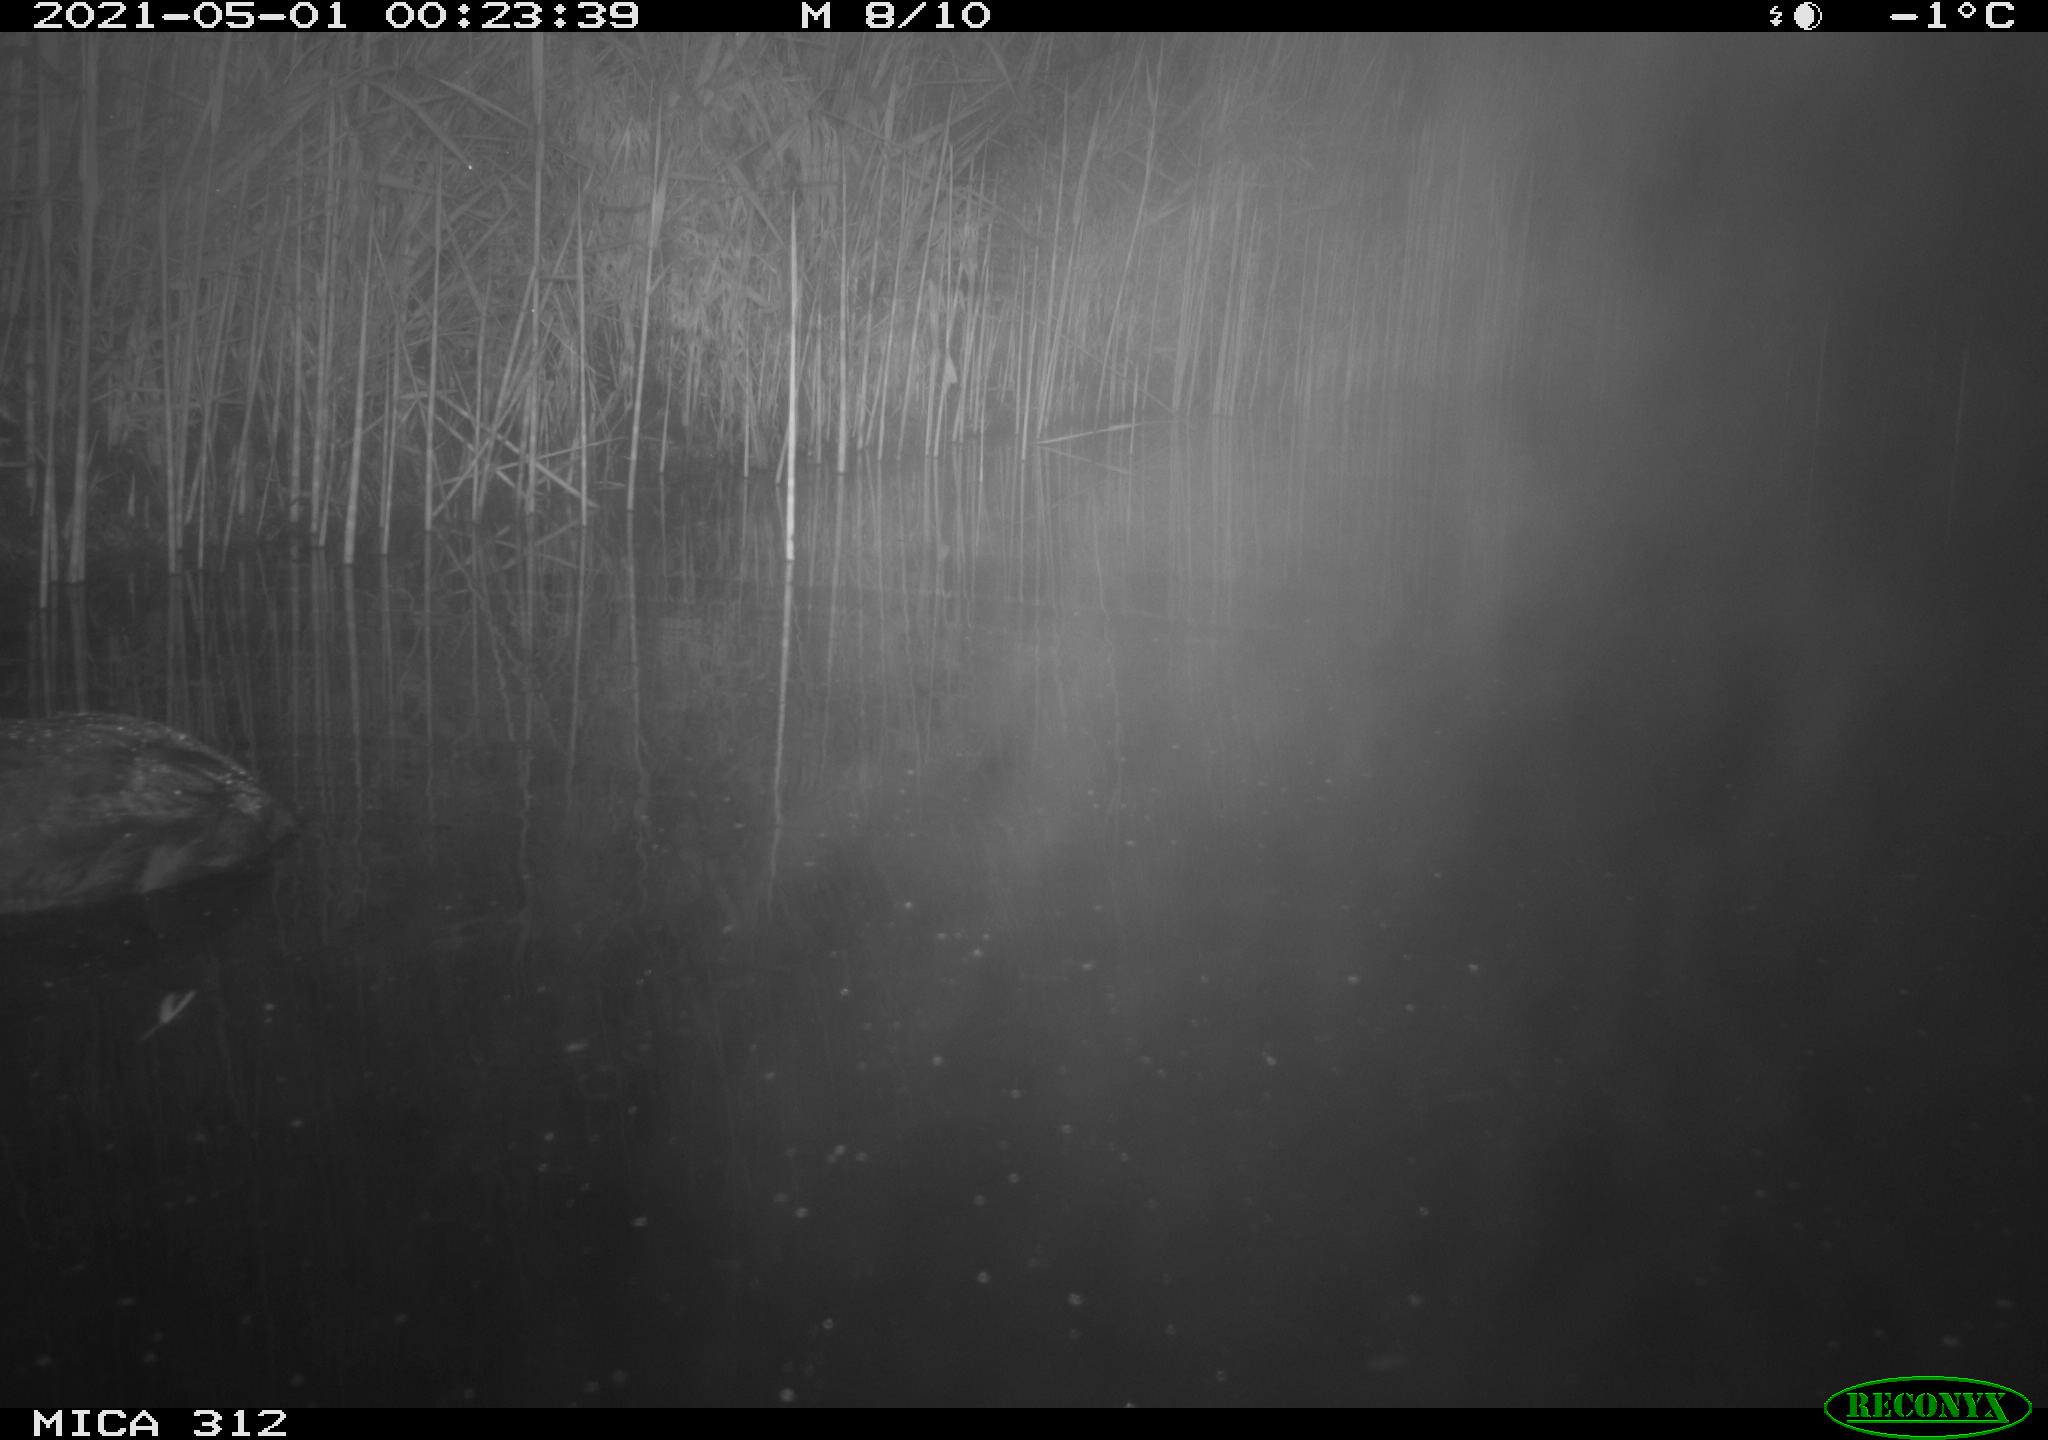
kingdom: Animalia
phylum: Chordata
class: Aves
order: Gruiformes
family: Rallidae
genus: Fulica
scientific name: Fulica atra
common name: Eurasian coot
